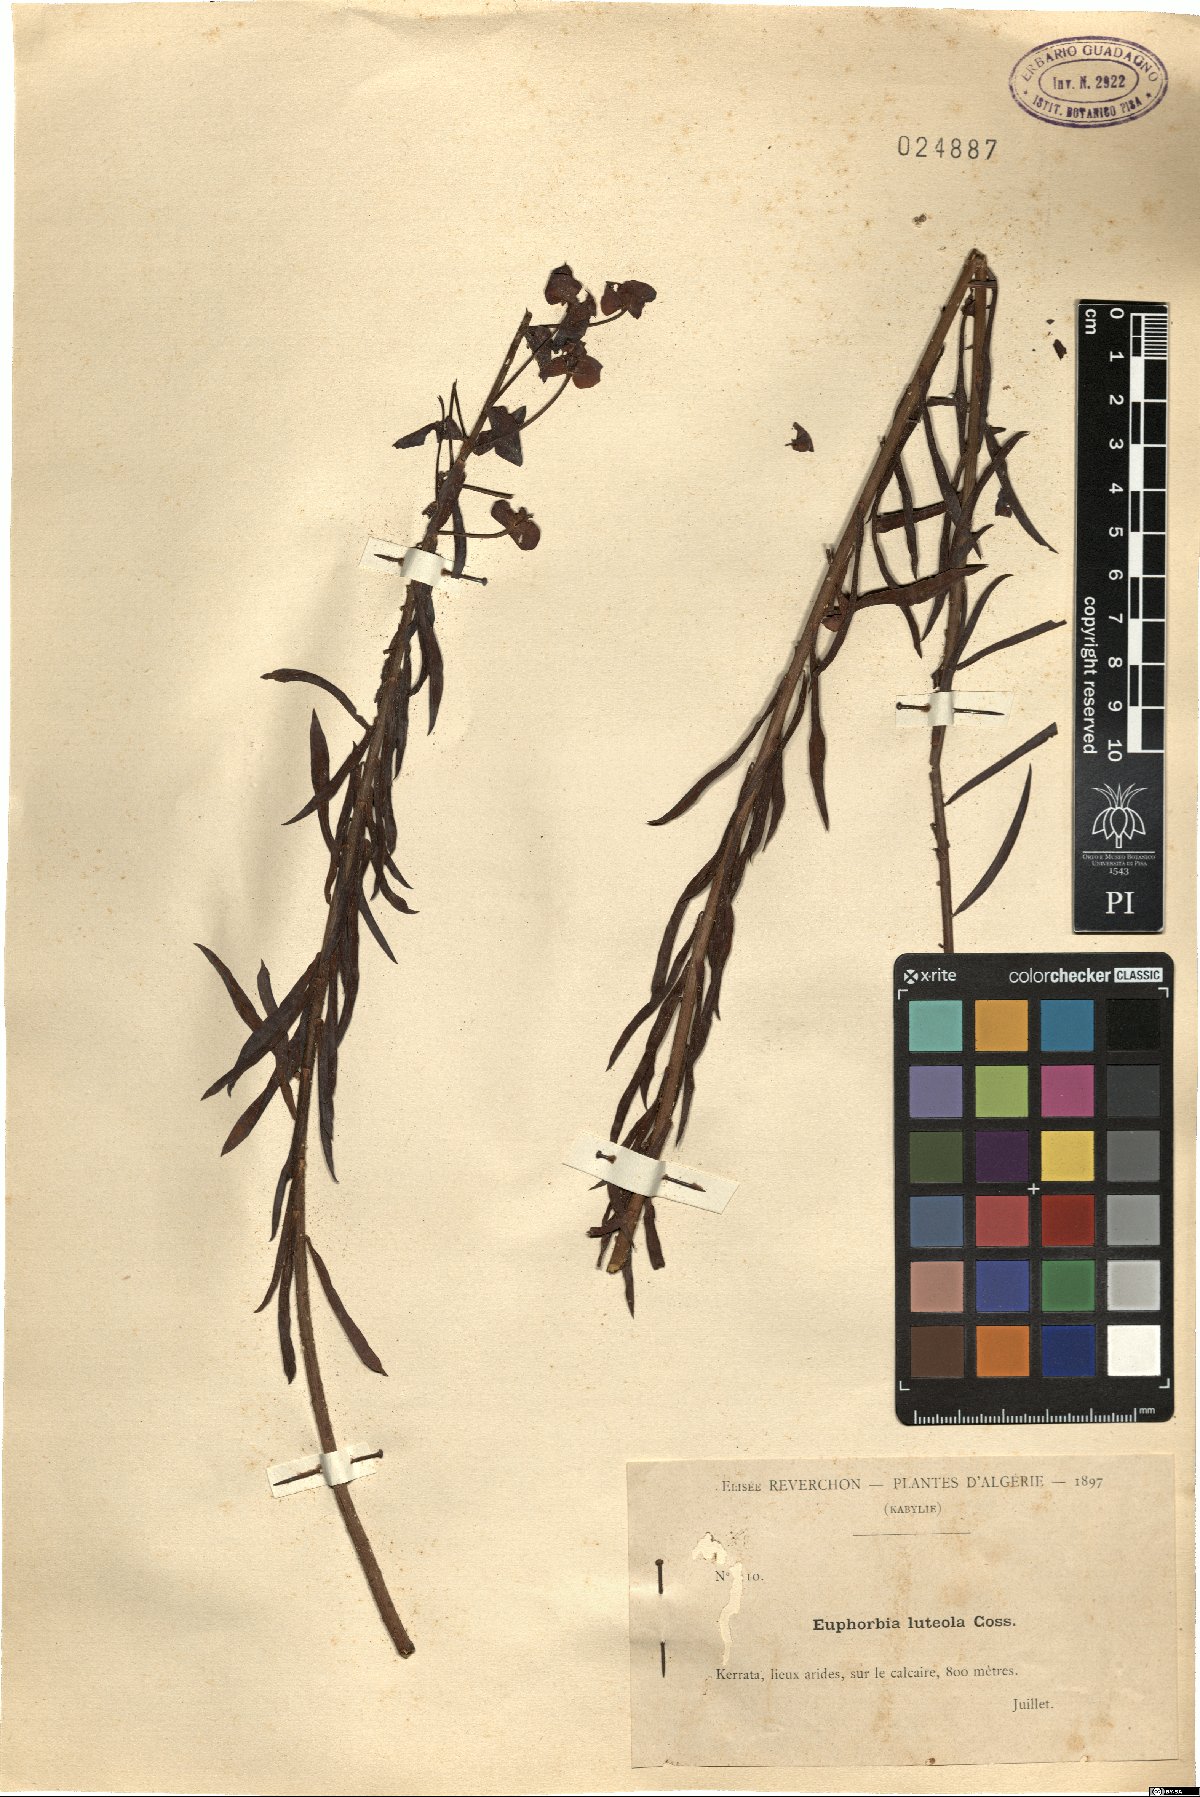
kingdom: Plantae
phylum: Tracheophyta
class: Magnoliopsida
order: Malpighiales
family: Euphorbiaceae
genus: Euphorbia
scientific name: Euphorbia luteola
